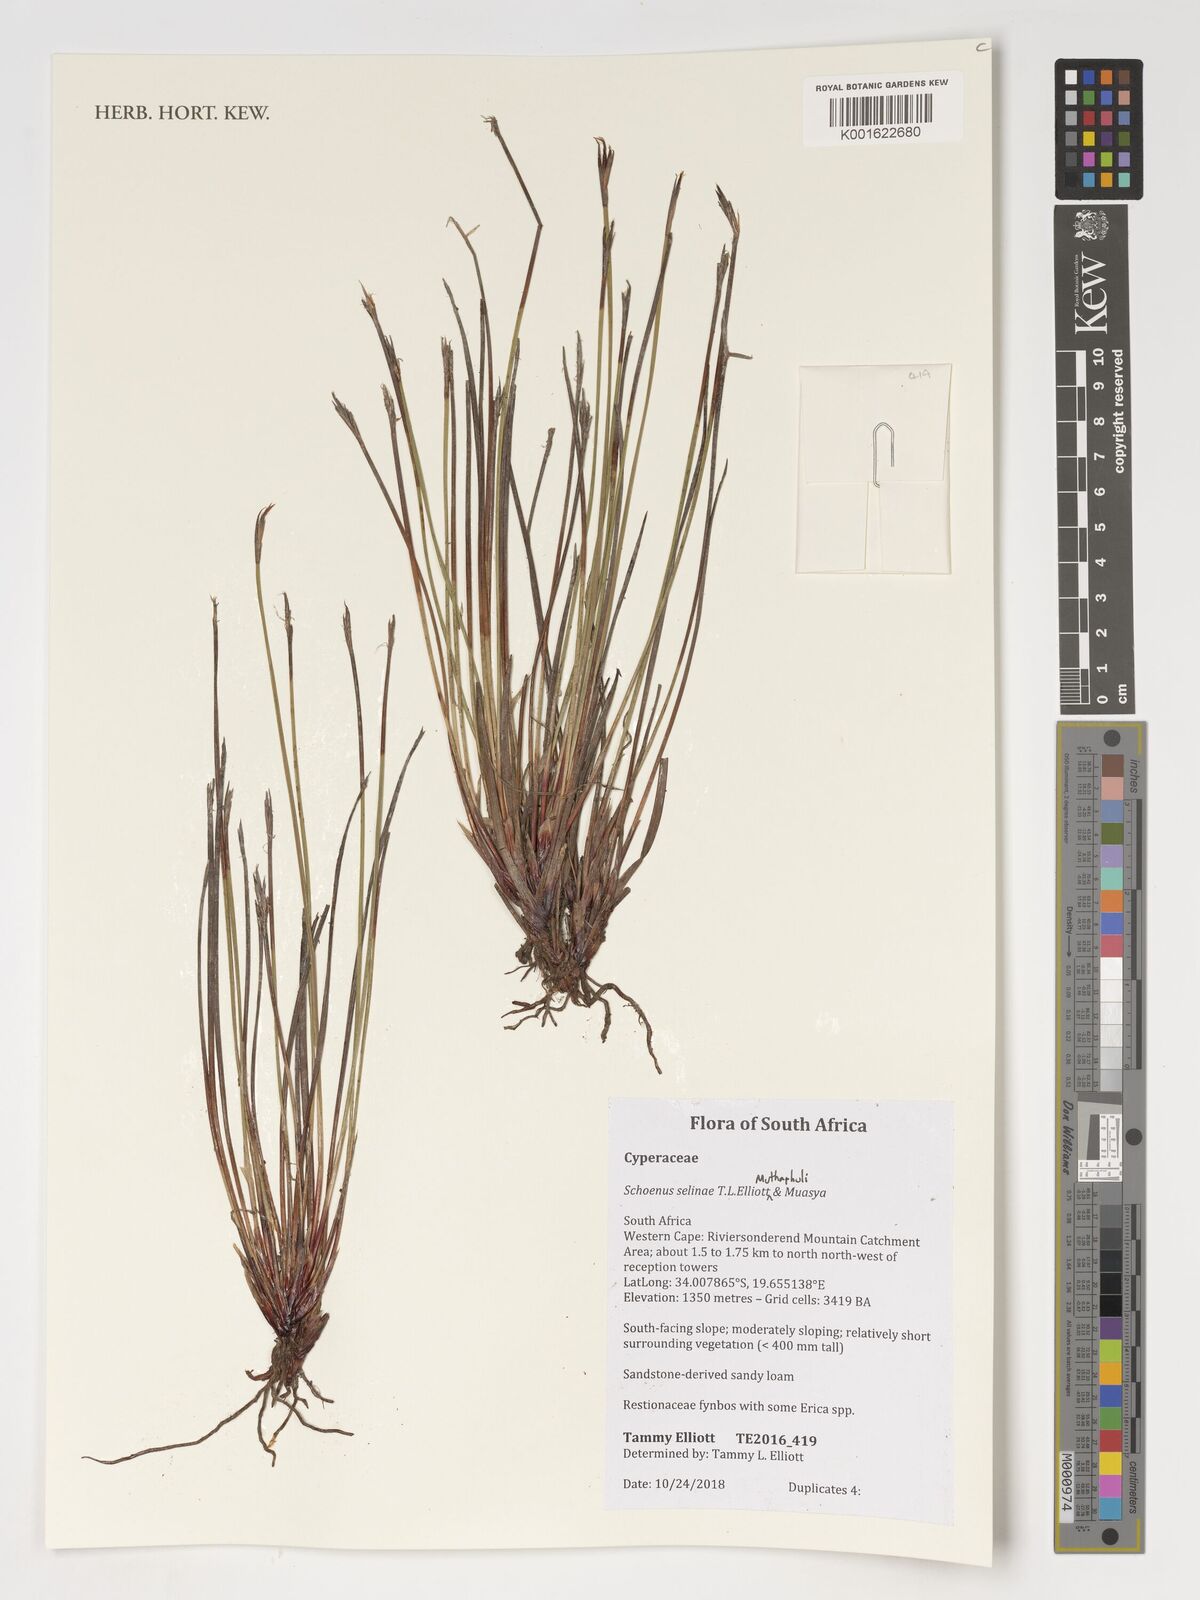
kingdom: Plantae
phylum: Tracheophyta
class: Liliopsida
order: Poales
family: Cyperaceae
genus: Schoenus
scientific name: Schoenus
